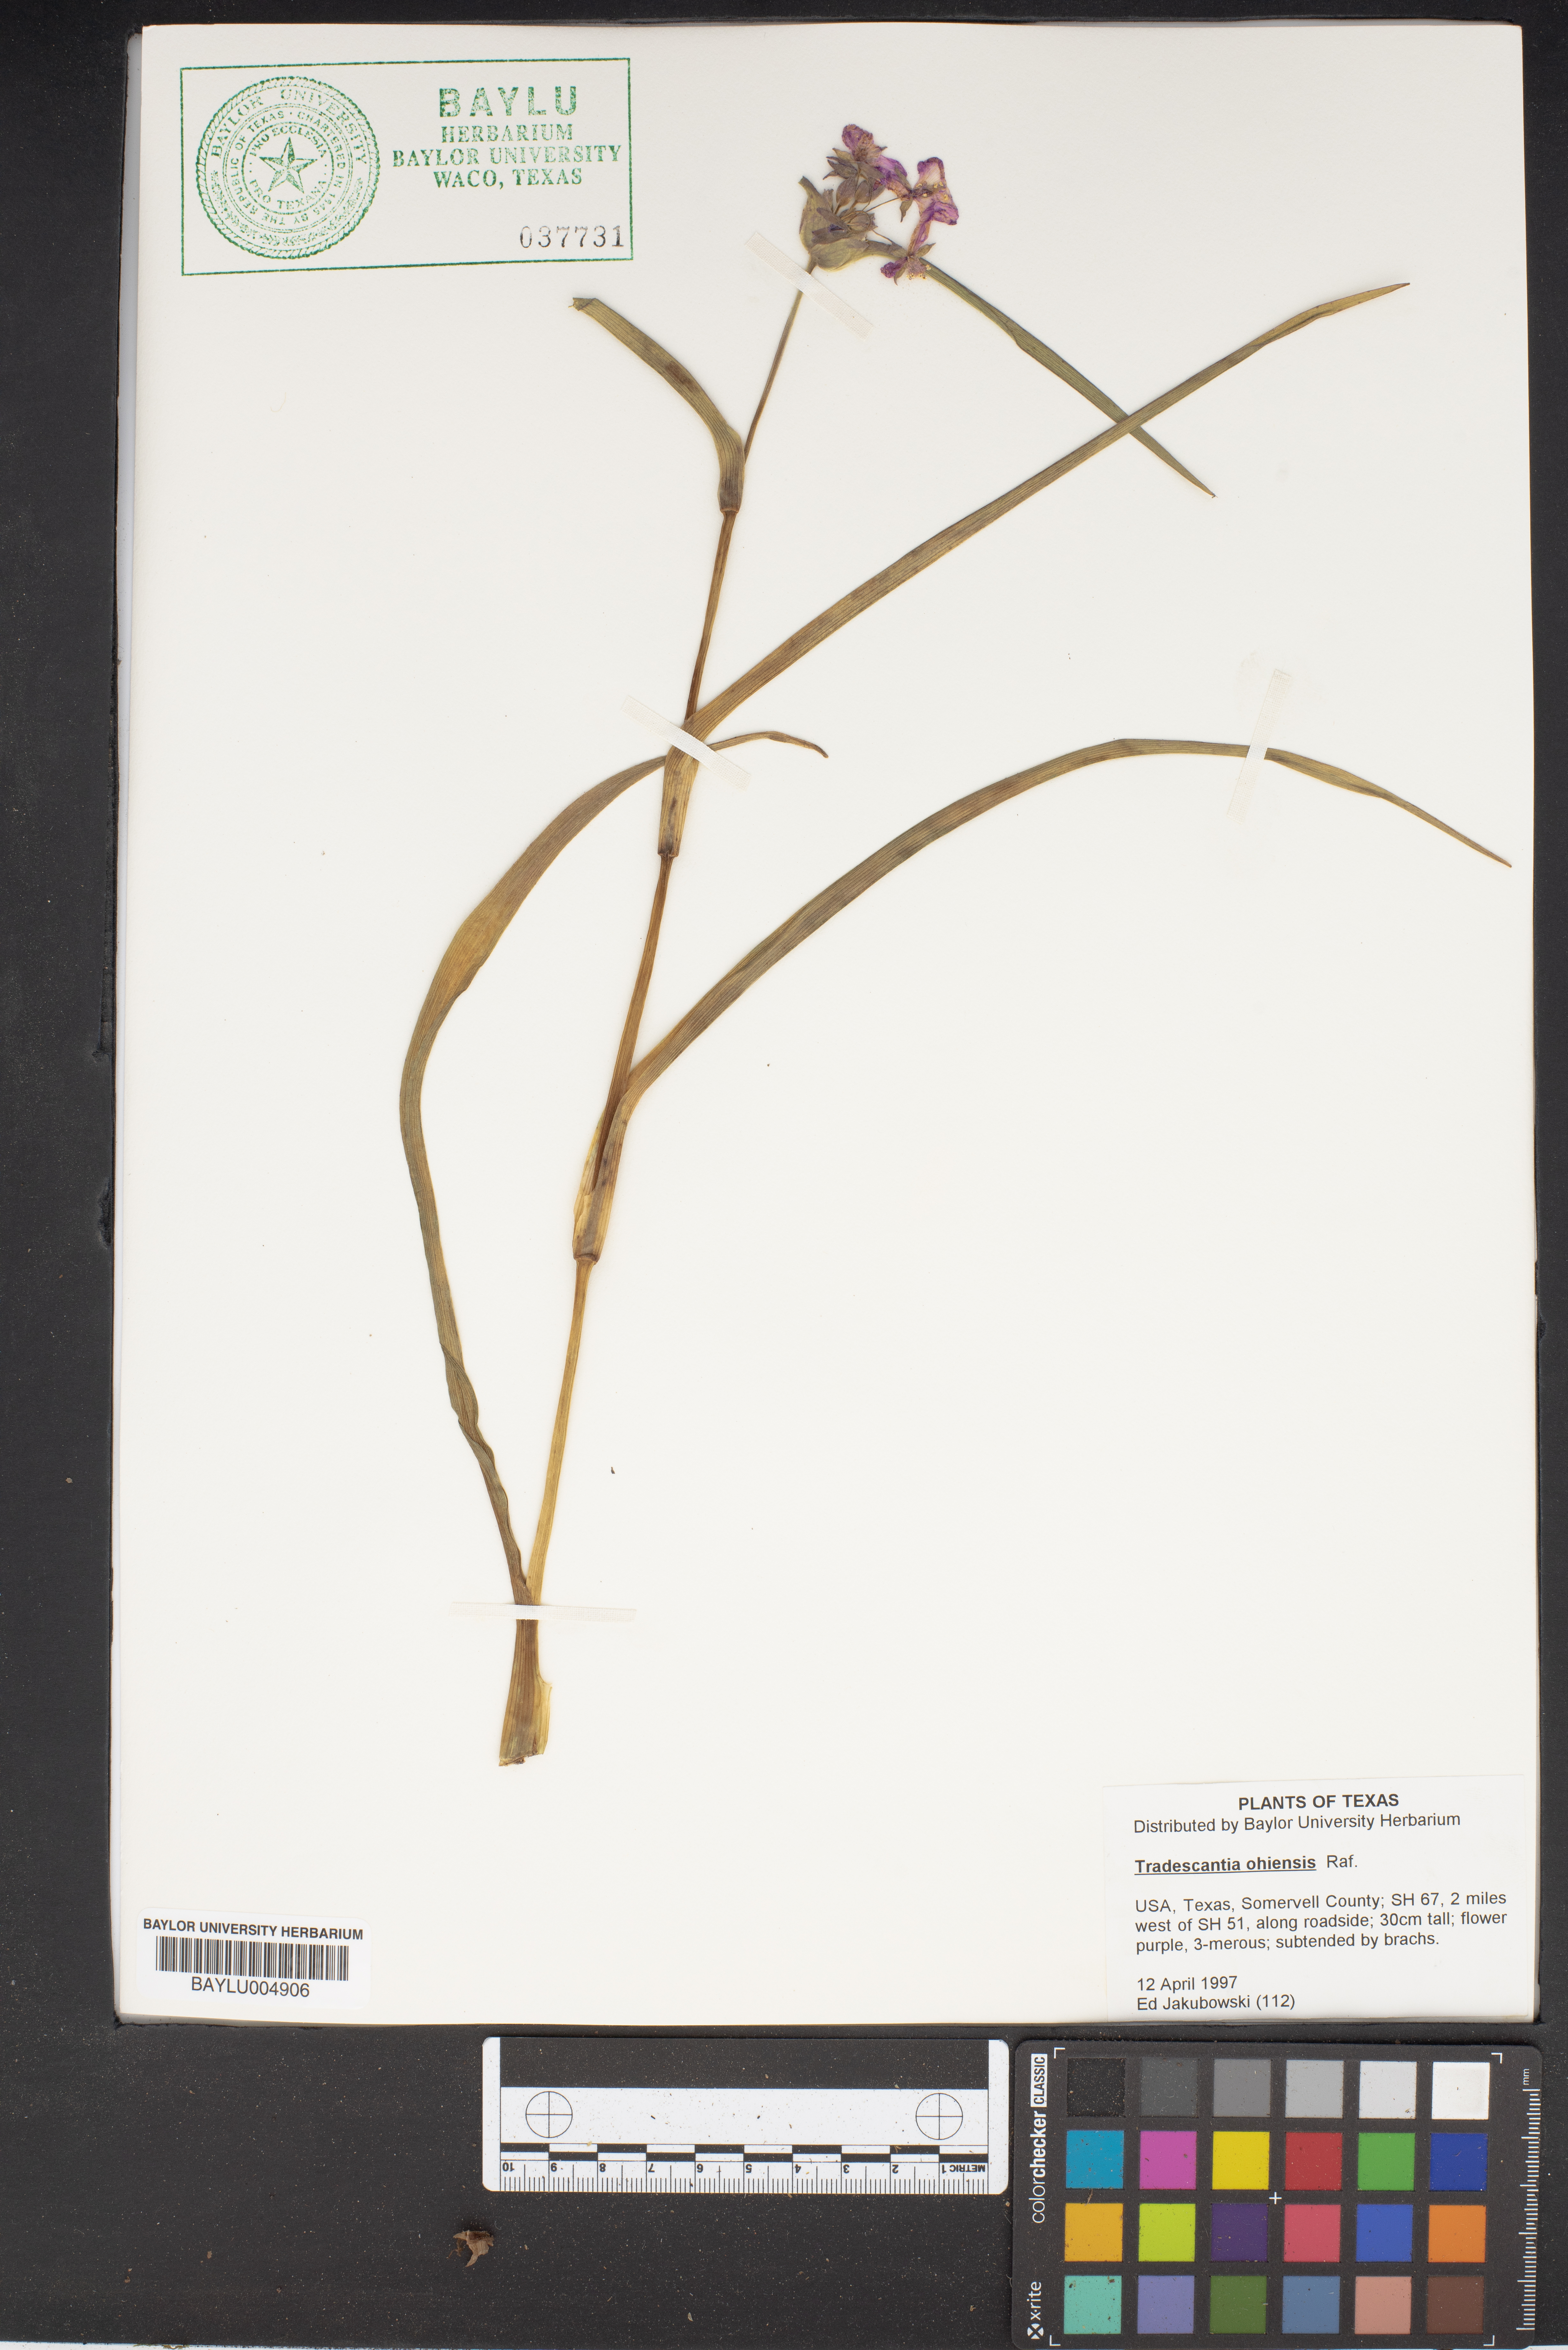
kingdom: Plantae
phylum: Tracheophyta
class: Liliopsida
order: Commelinales
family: Commelinaceae
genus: Tradescantia
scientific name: Tradescantia ohiensis
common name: Ohio spiderwort
